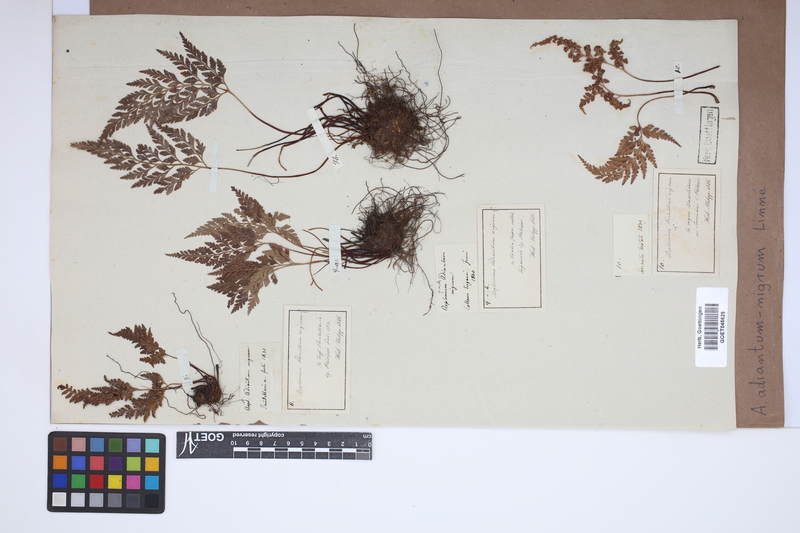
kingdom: Plantae
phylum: Tracheophyta
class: Polypodiopsida
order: Polypodiales
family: Aspleniaceae
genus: Asplenium
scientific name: Asplenium adiantum-nigrum
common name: Black spleenwort
